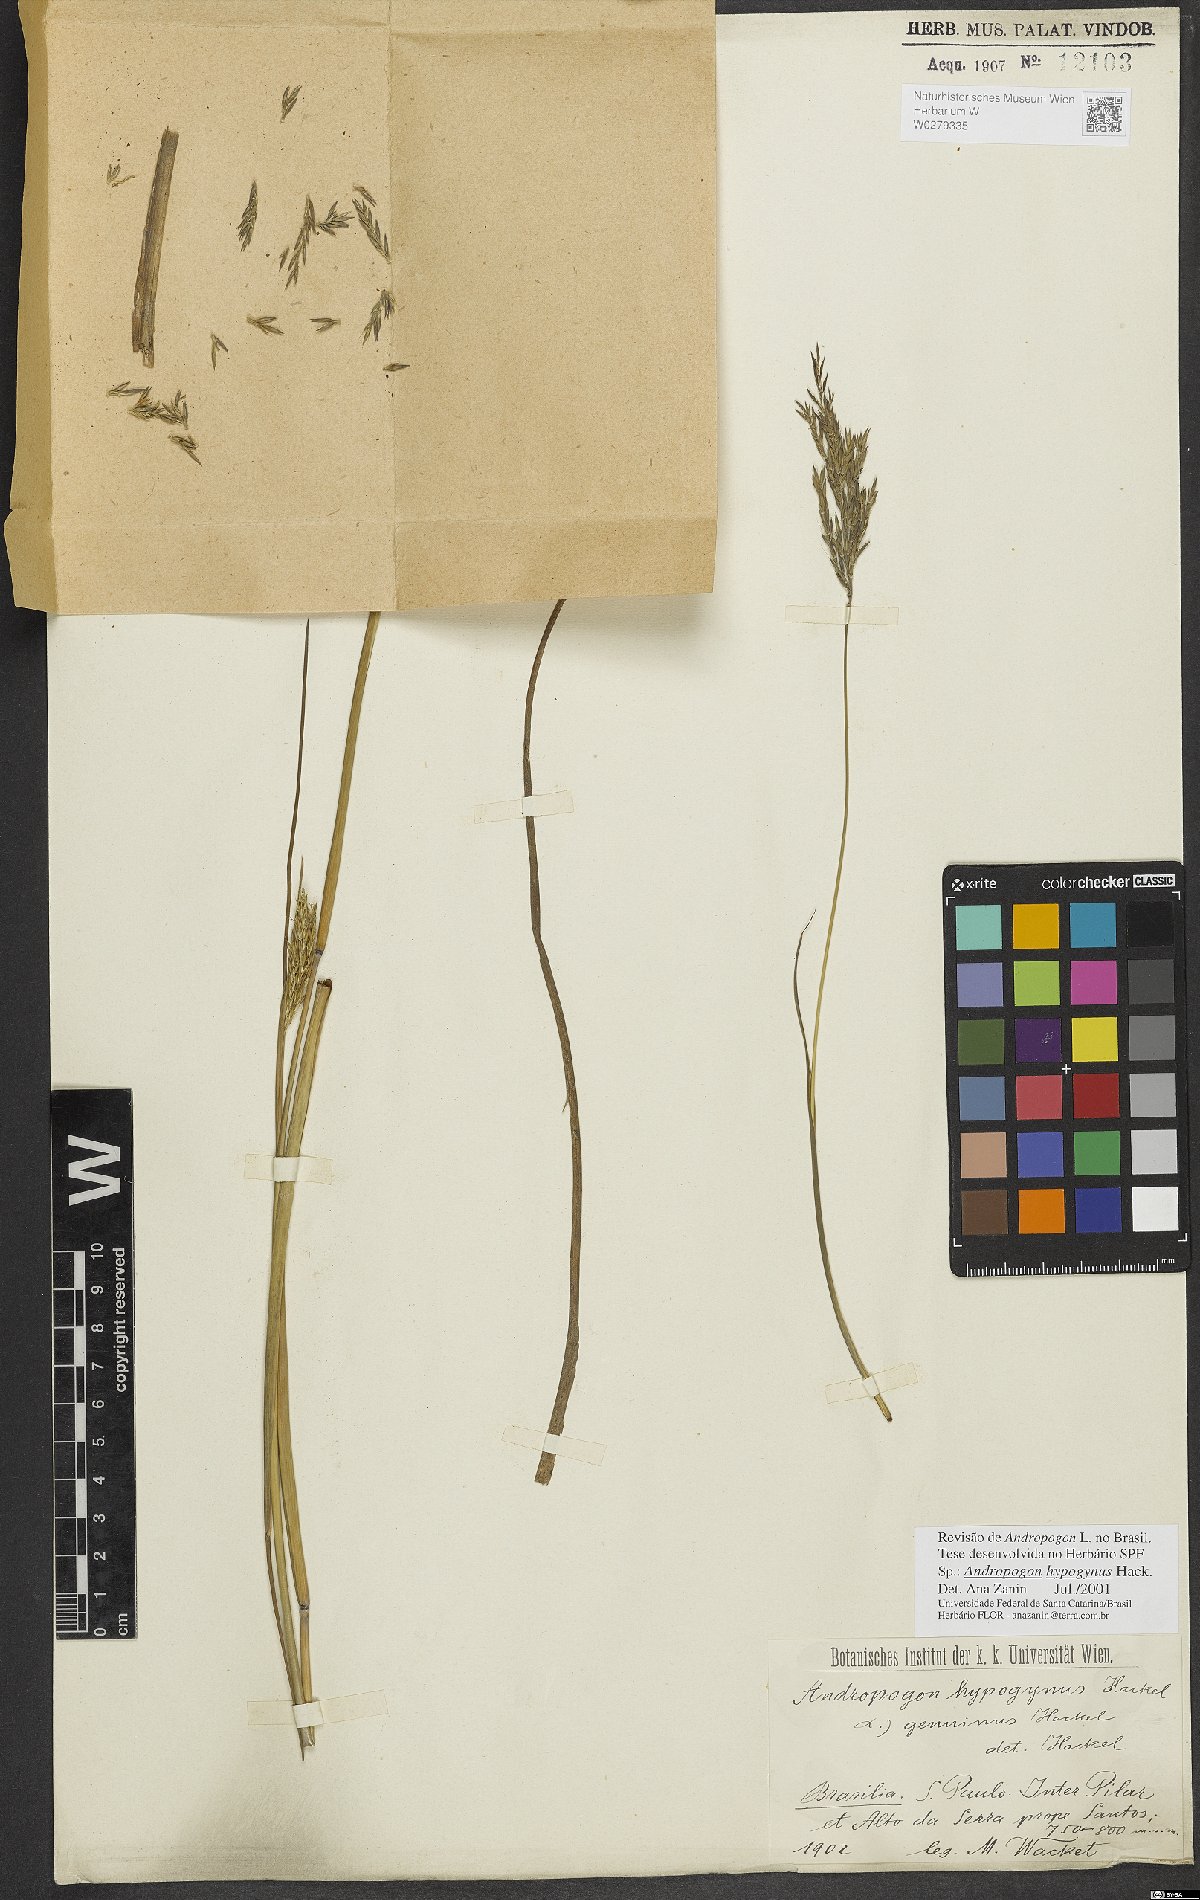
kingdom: Plantae
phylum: Tracheophyta
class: Liliopsida
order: Poales
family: Poaceae
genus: Andropogon
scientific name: Andropogon hypogynus
